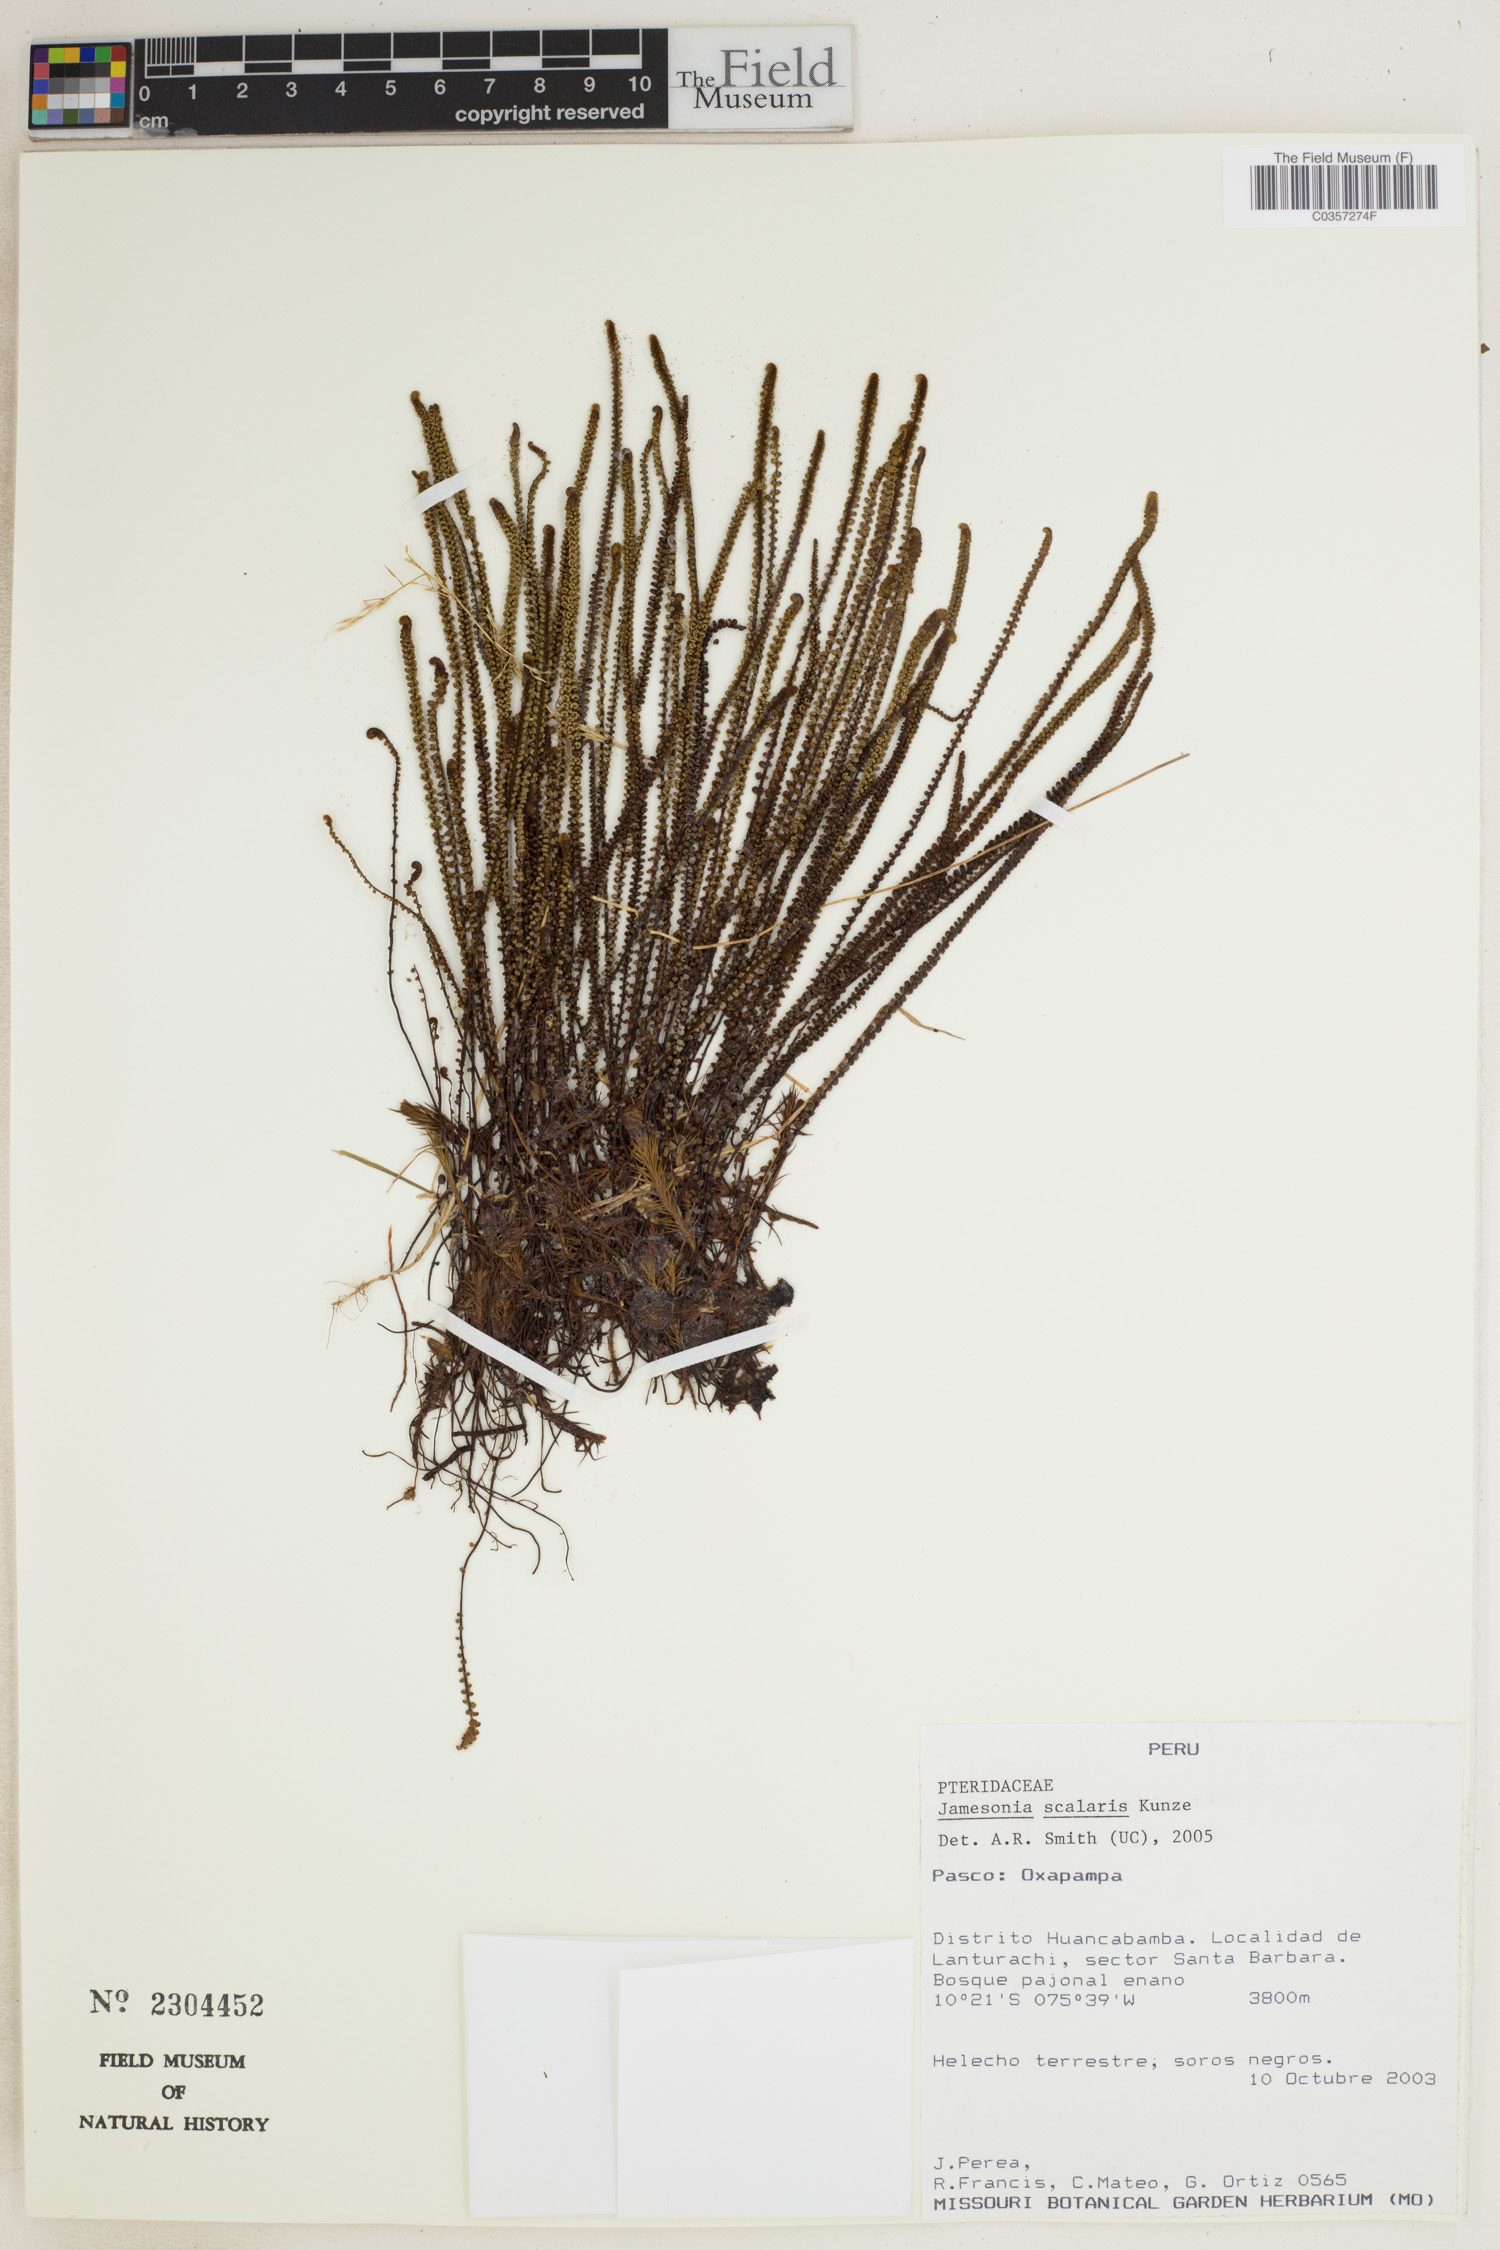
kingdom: Plantae
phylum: Tracheophyta
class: Polypodiopsida
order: Polypodiales
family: Pteridaceae
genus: Jamesonia
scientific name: Jamesonia scalaris
